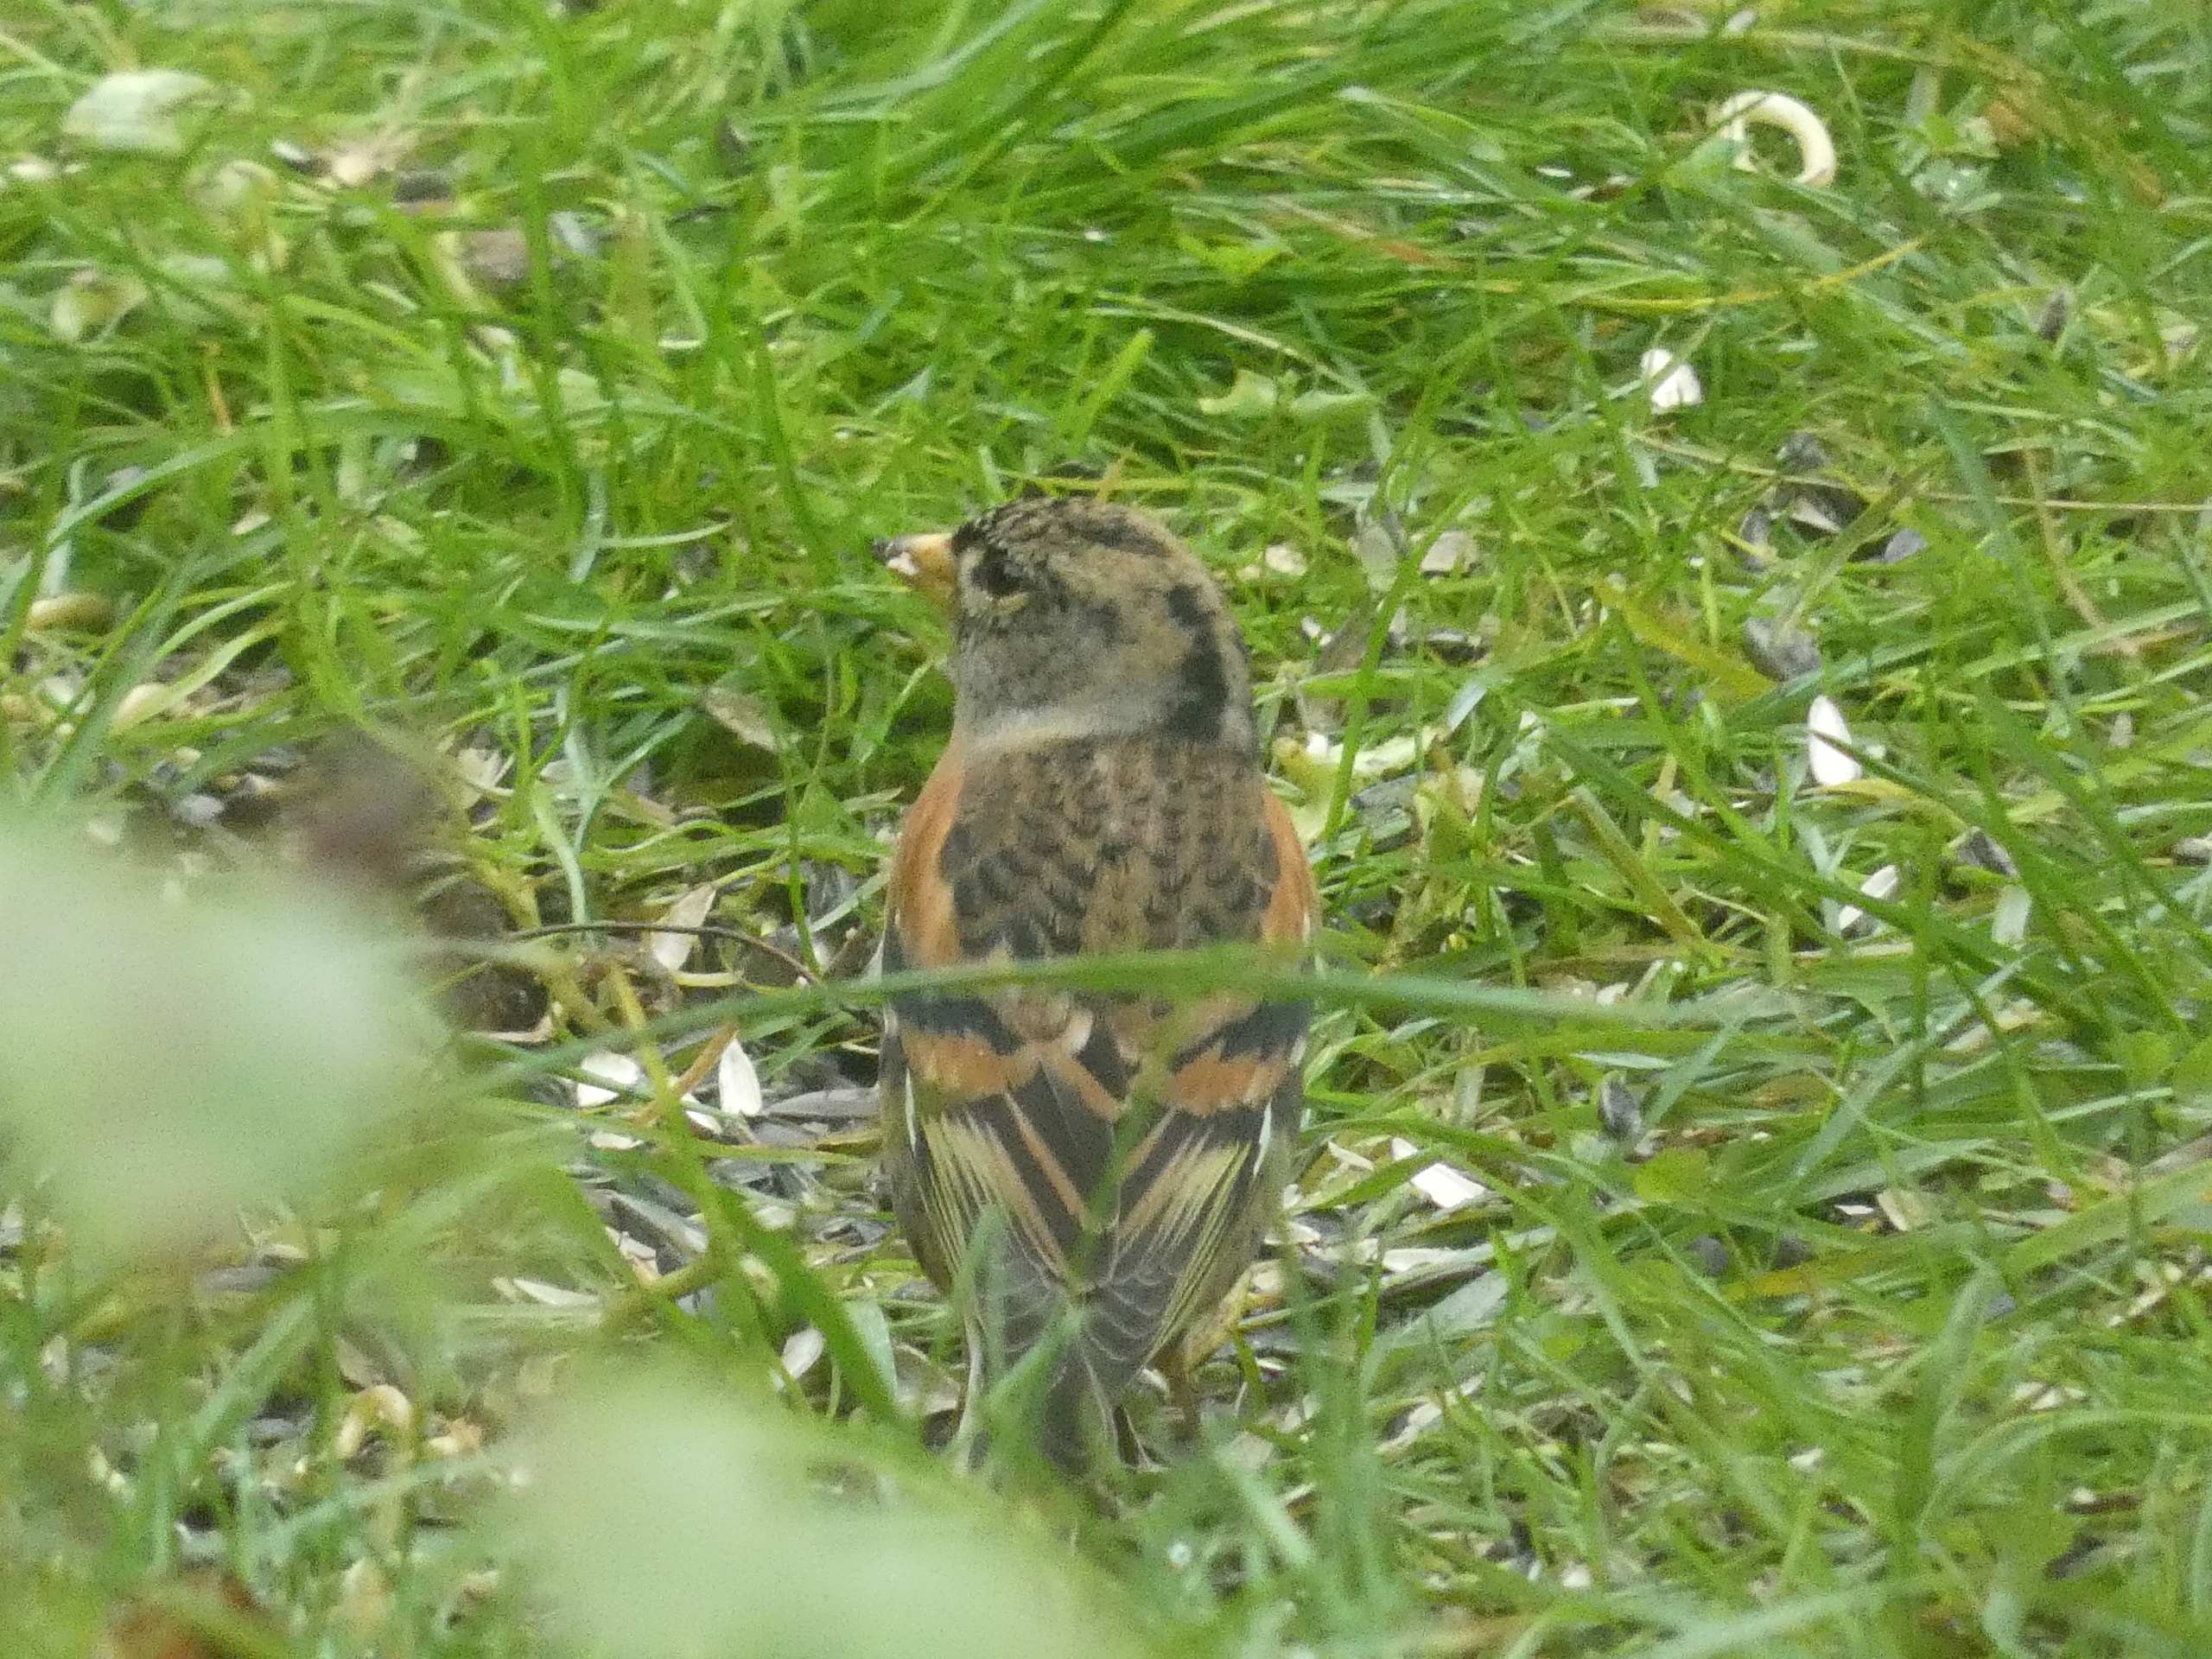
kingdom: Animalia
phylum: Chordata
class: Aves
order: Passeriformes
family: Fringillidae
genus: Fringilla
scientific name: Fringilla montifringilla
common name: Kvækerfinke
